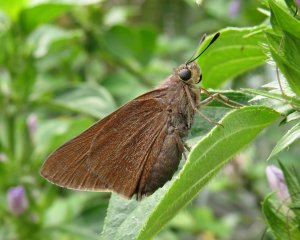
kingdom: Animalia
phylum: Arthropoda
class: Insecta
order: Lepidoptera
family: Hesperiidae
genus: Euphyes
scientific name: Euphyes pilatka
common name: Palatka Skipper
